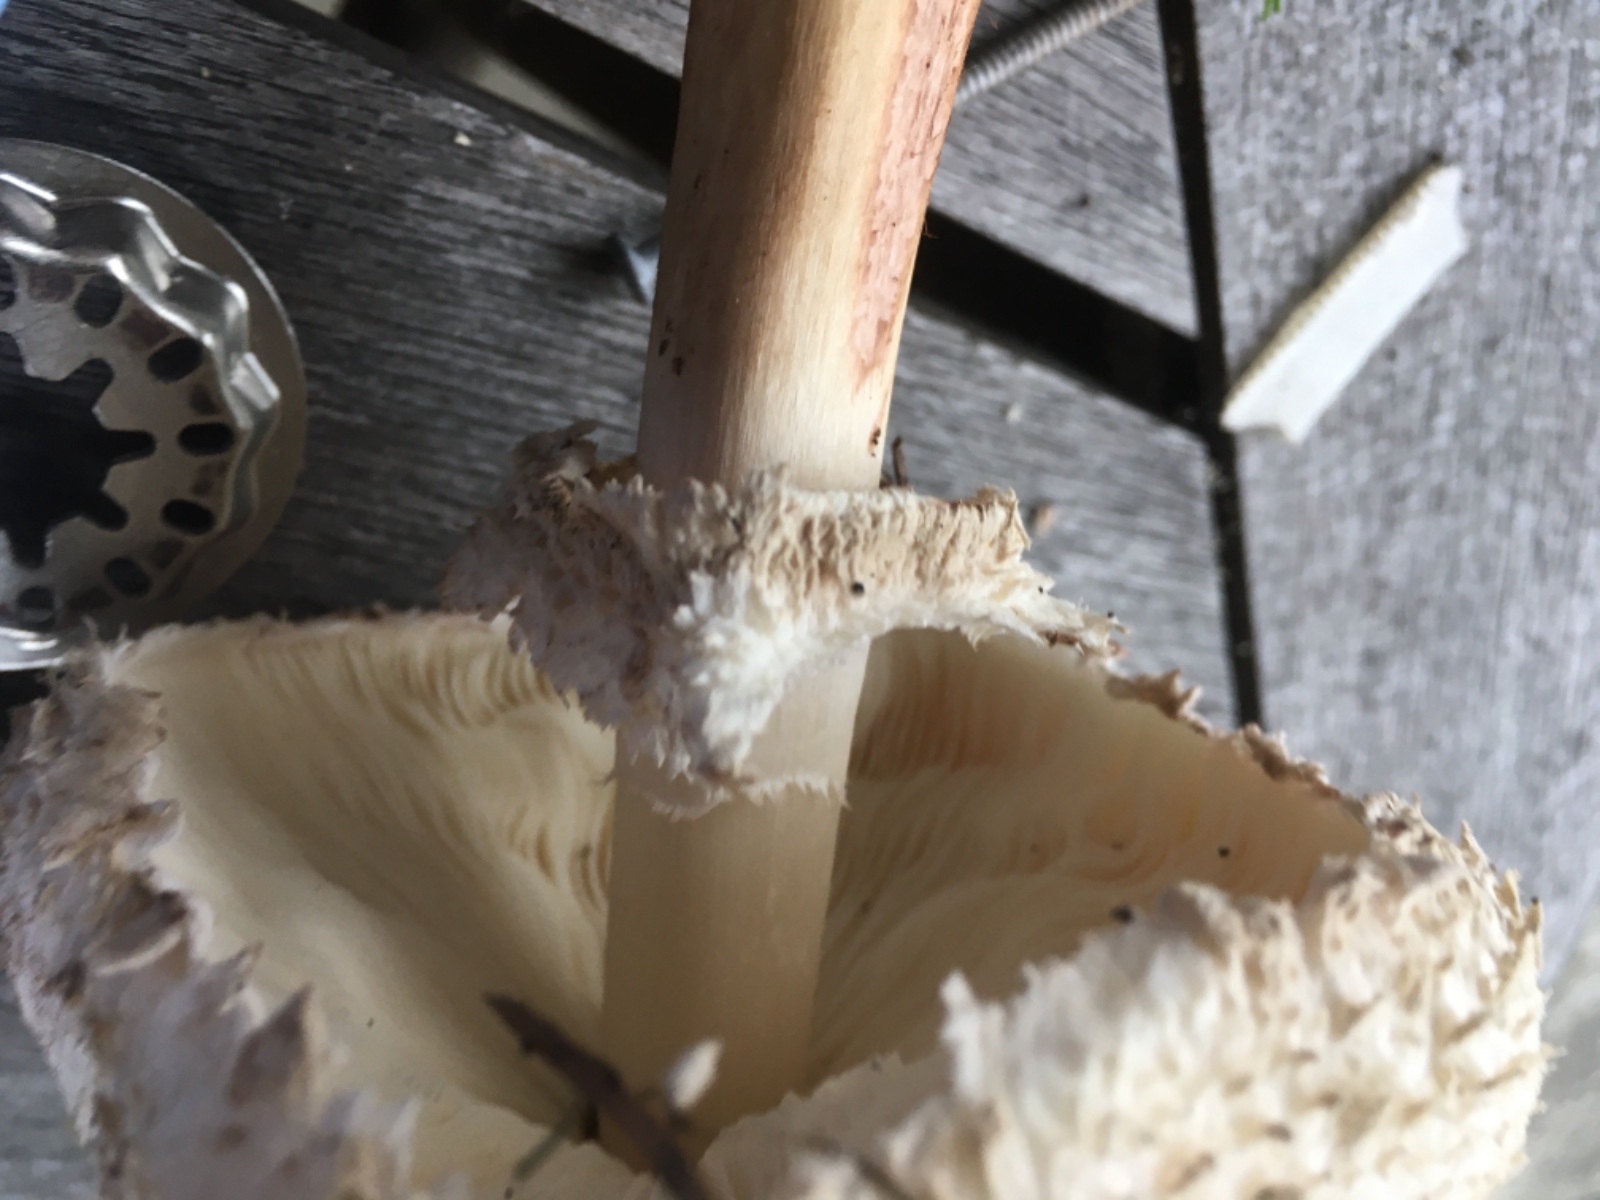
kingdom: Fungi
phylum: Basidiomycota
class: Agaricomycetes
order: Agaricales
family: Agaricaceae
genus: Chlorophyllum
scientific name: Chlorophyllum rhacodes
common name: ægte rabarberhat
